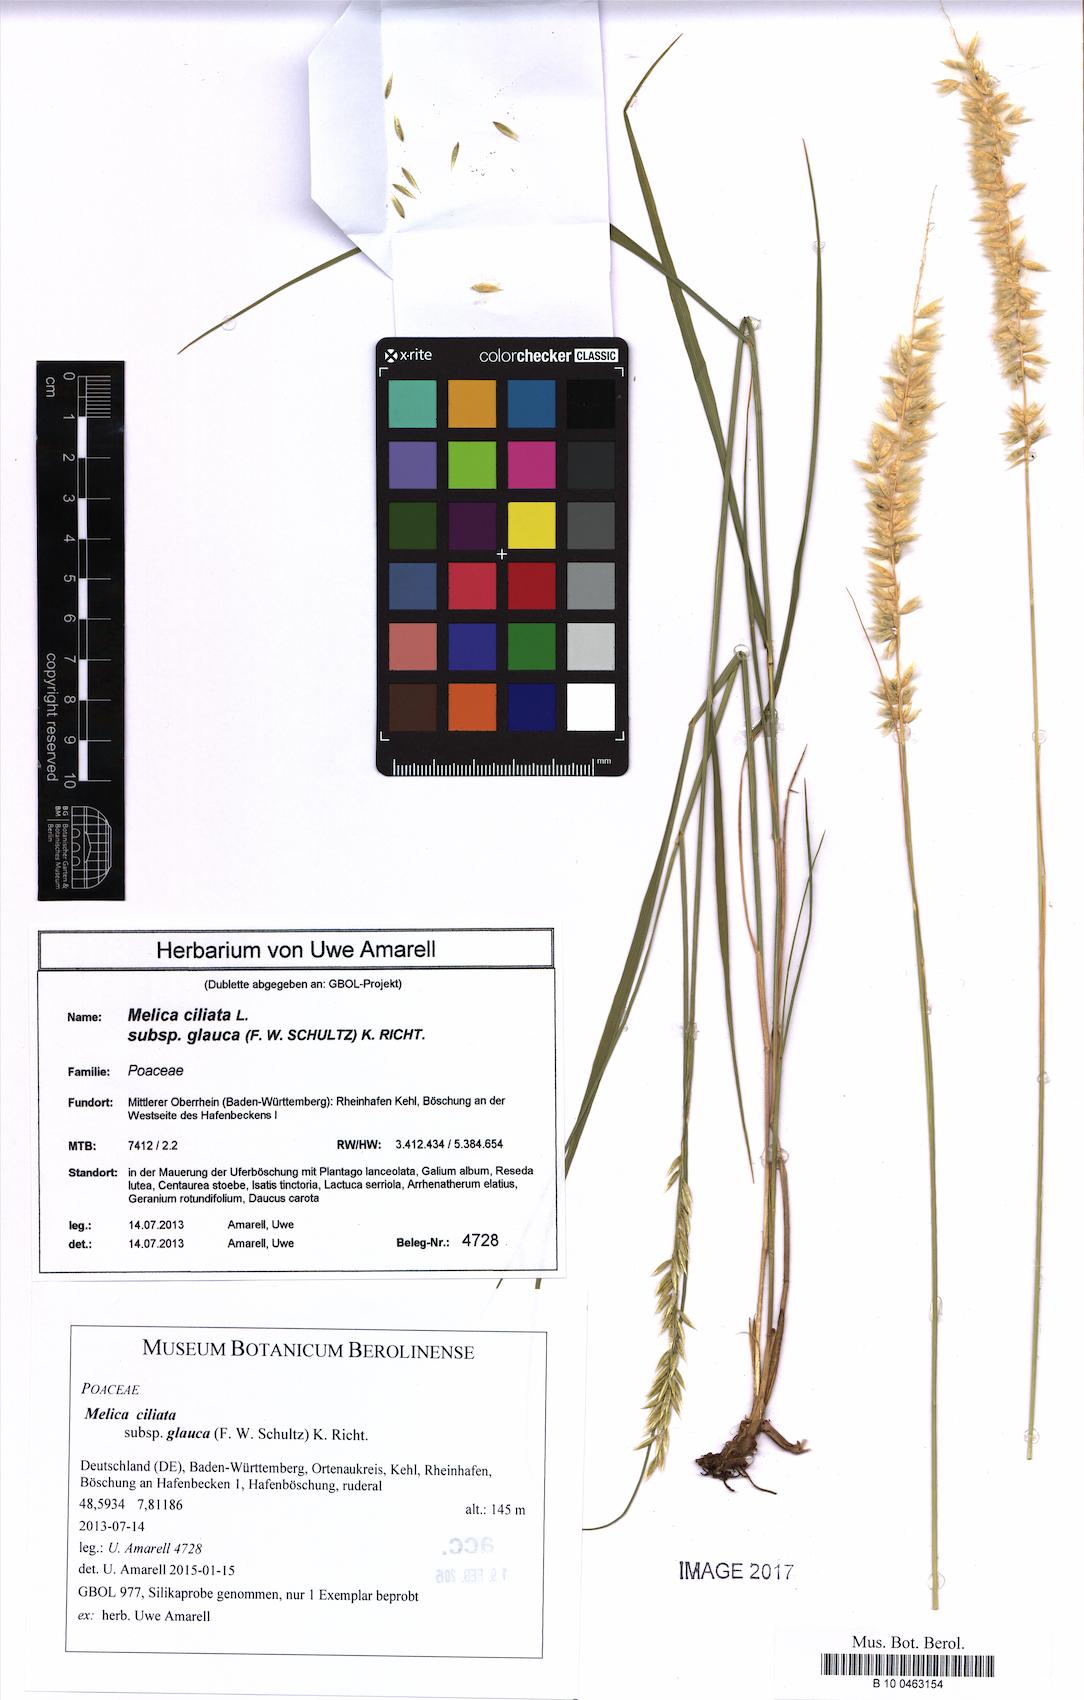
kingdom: Plantae
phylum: Tracheophyta
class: Liliopsida
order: Poales
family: Poaceae
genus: Melica
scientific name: Melica ciliata
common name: Hairy melicgrass
